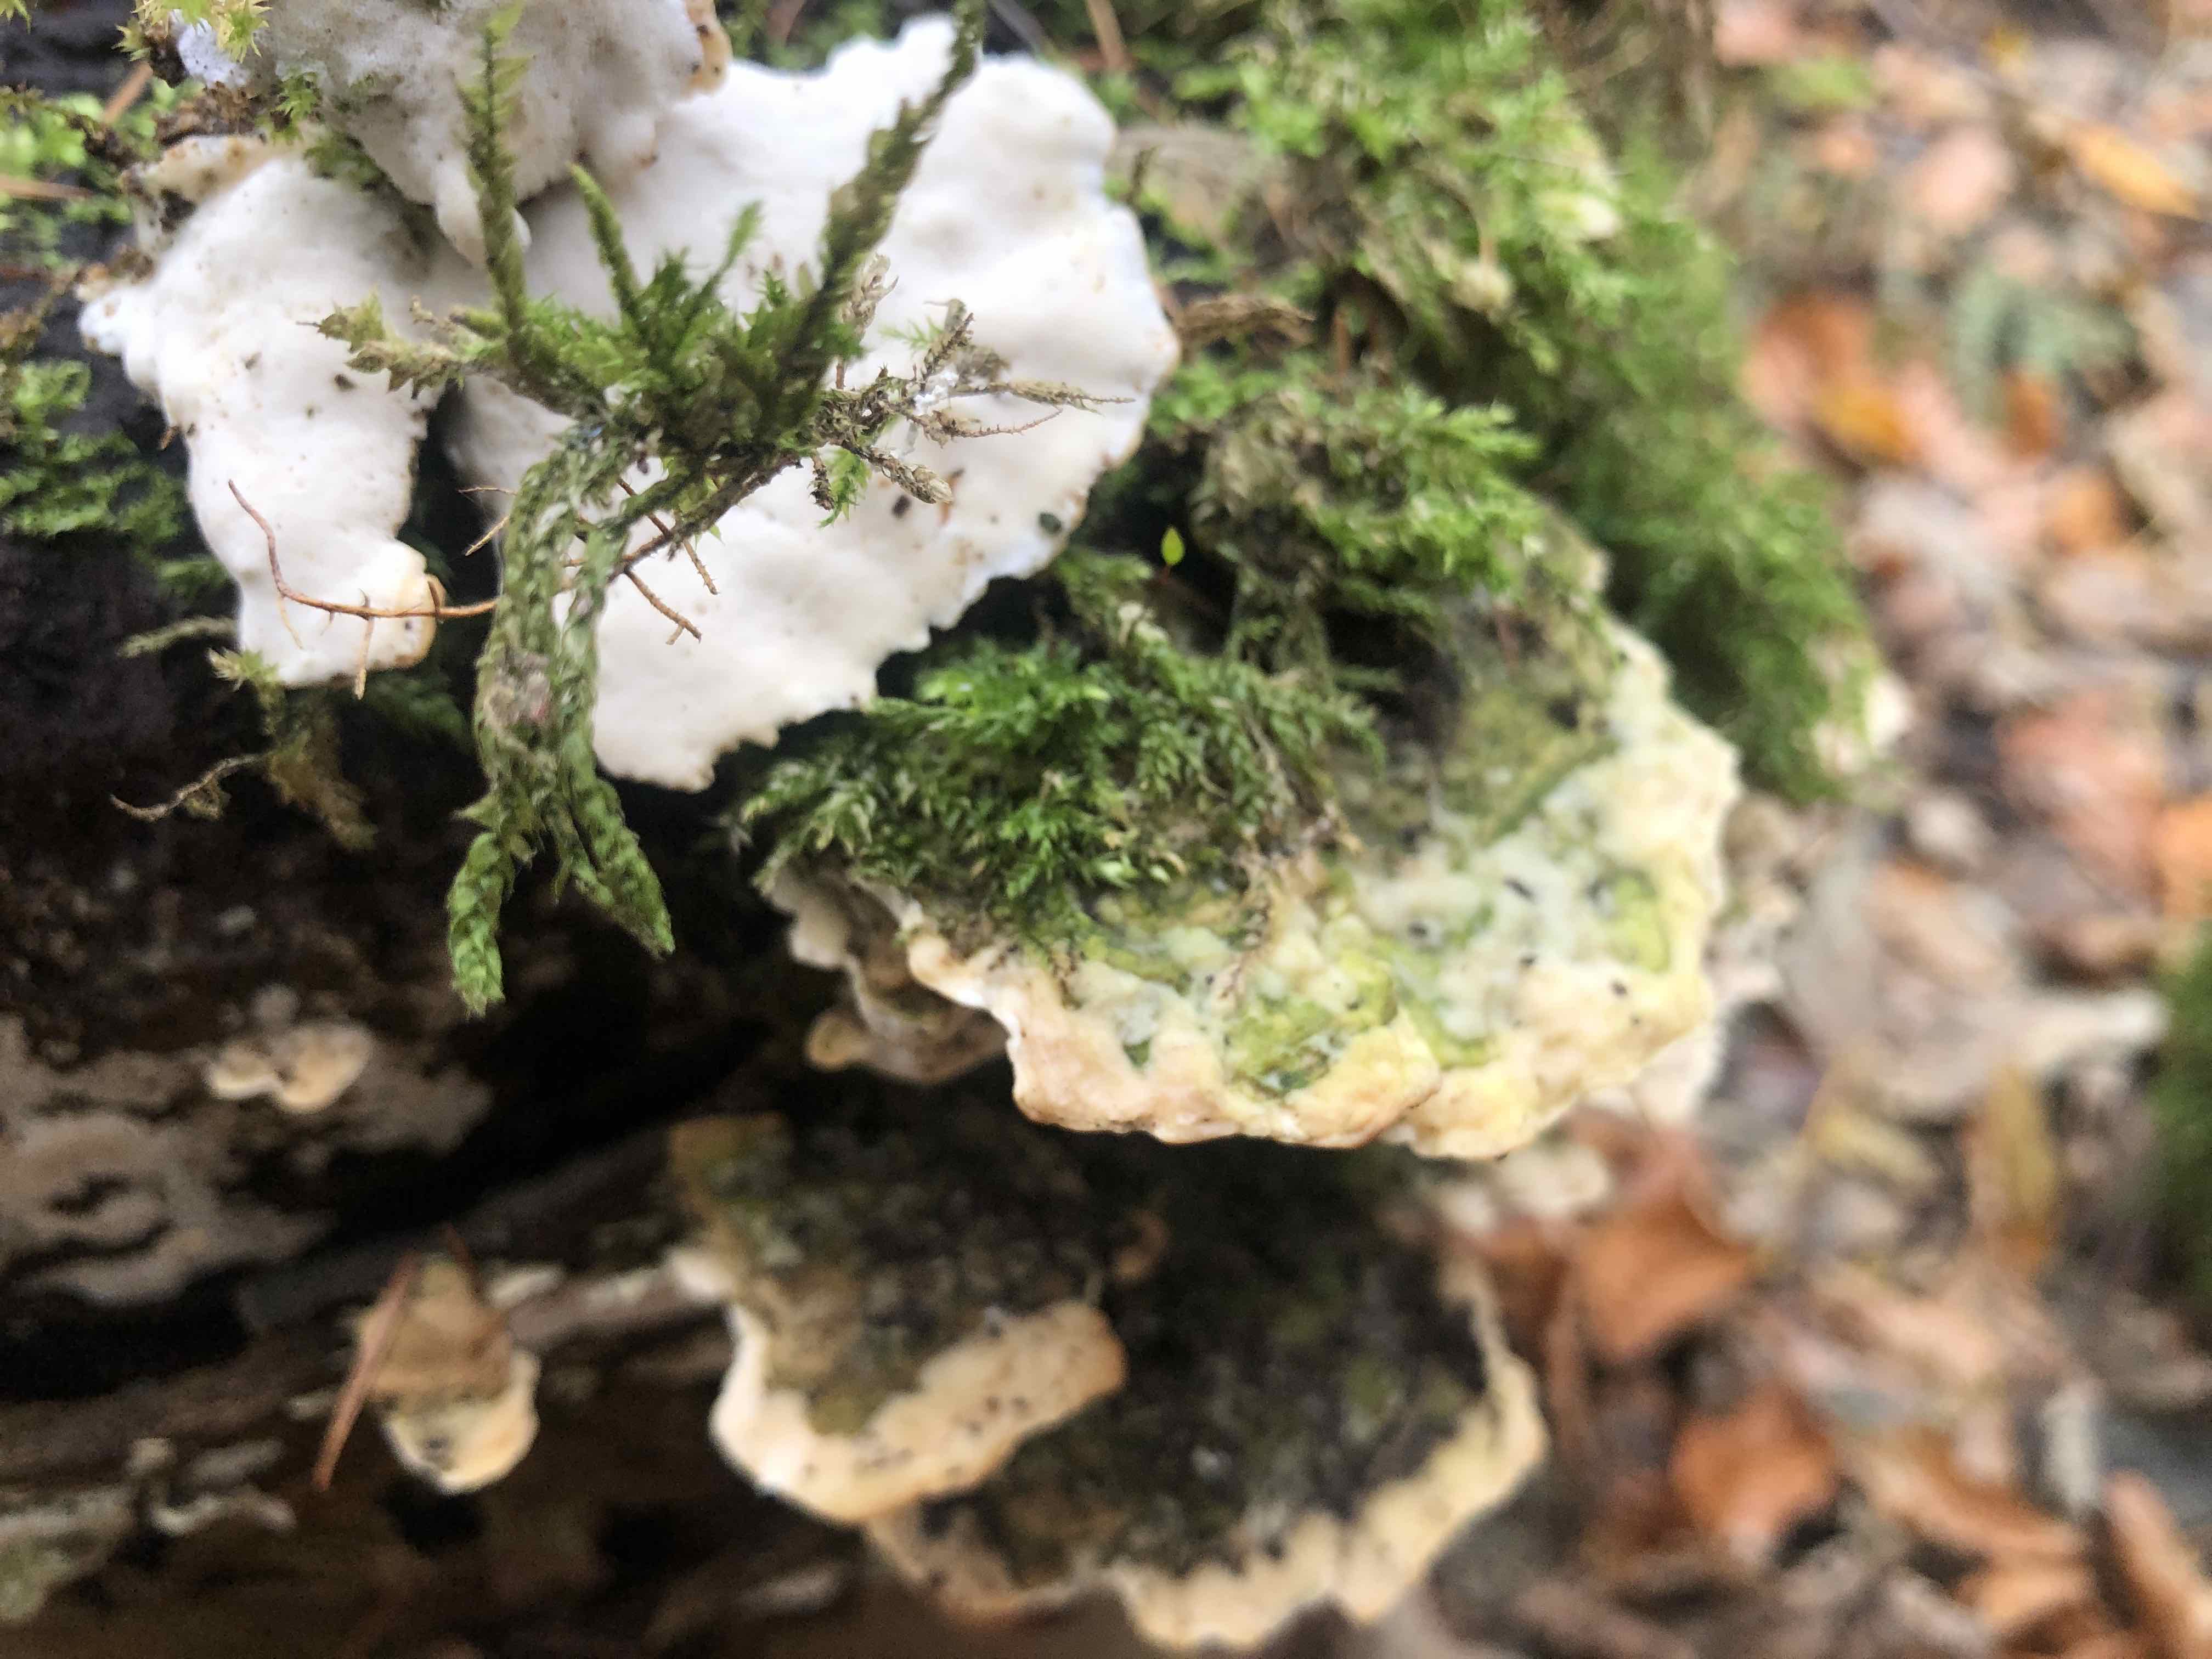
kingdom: Fungi
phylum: Basidiomycota
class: Agaricomycetes
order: Hymenochaetales
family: Oxyporaceae
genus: Oxyporus
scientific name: Oxyporus populinus
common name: sammenvokset trylleporesvamp
